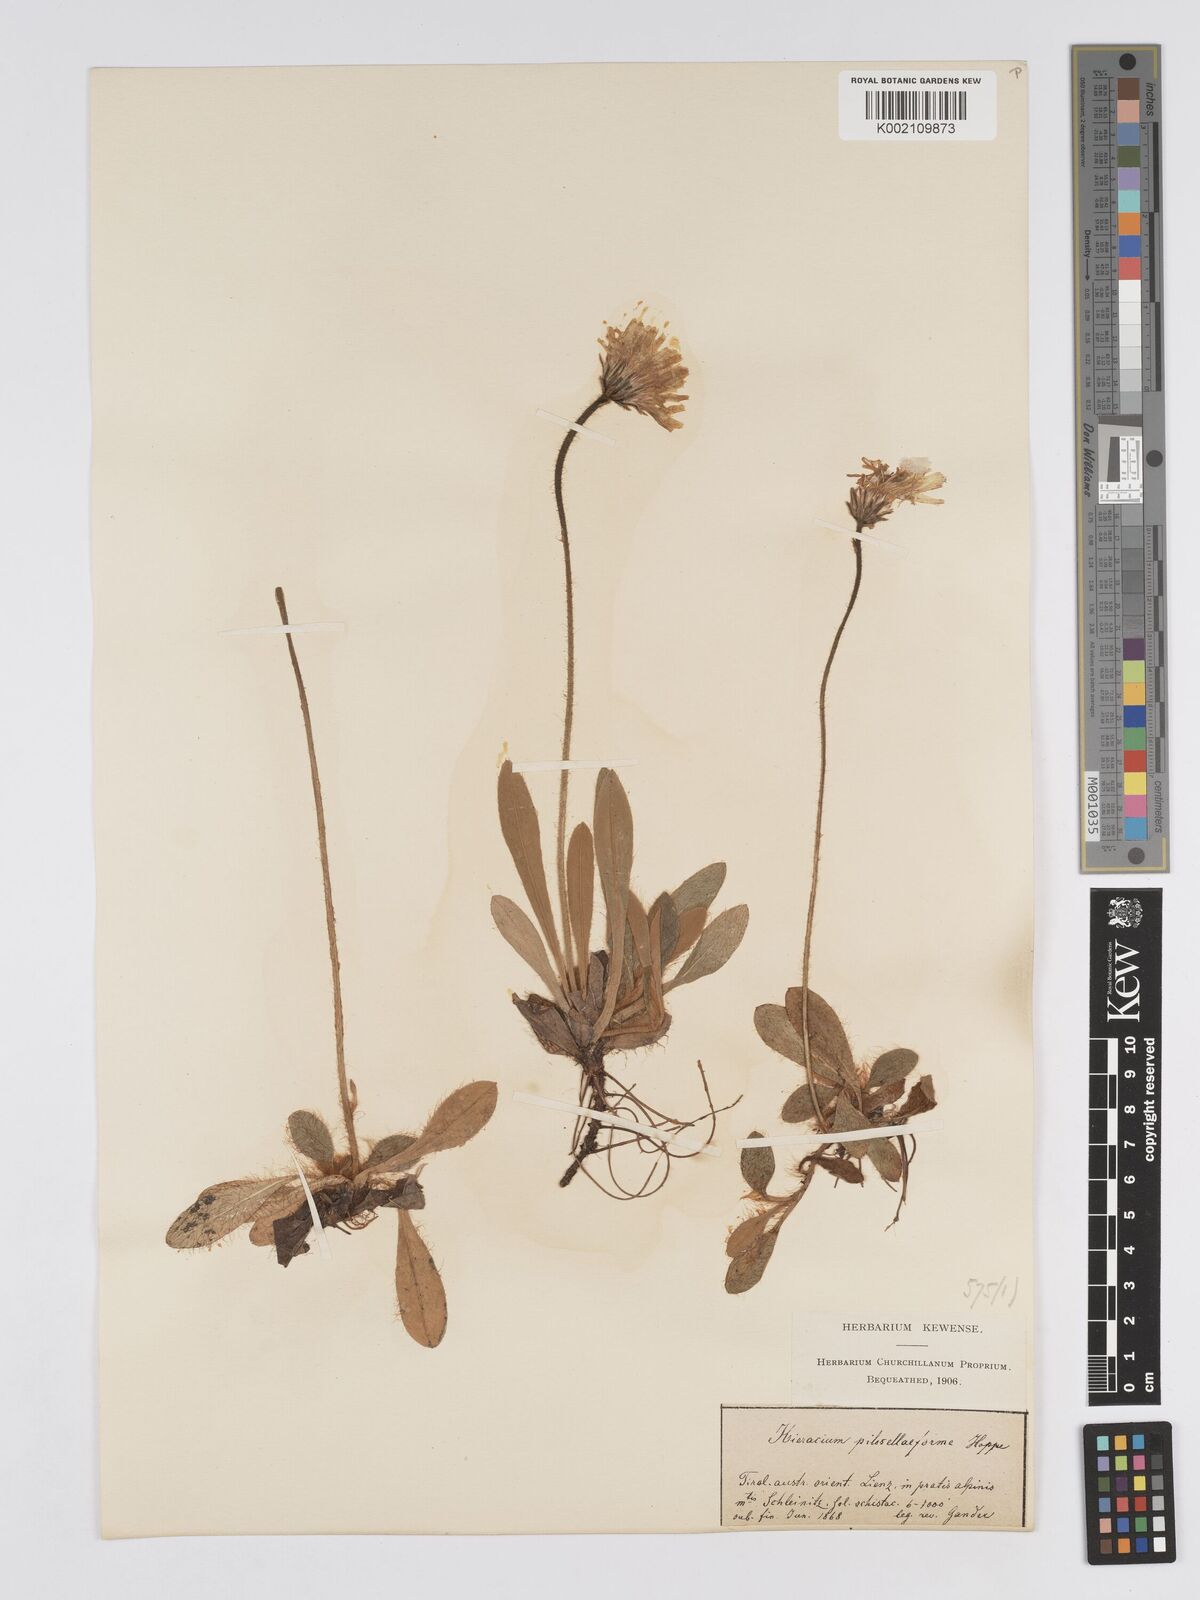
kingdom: Plantae
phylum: Tracheophyta
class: Magnoliopsida
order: Asterales
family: Asteraceae
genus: Pilosella
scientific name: Pilosella hoppeana
